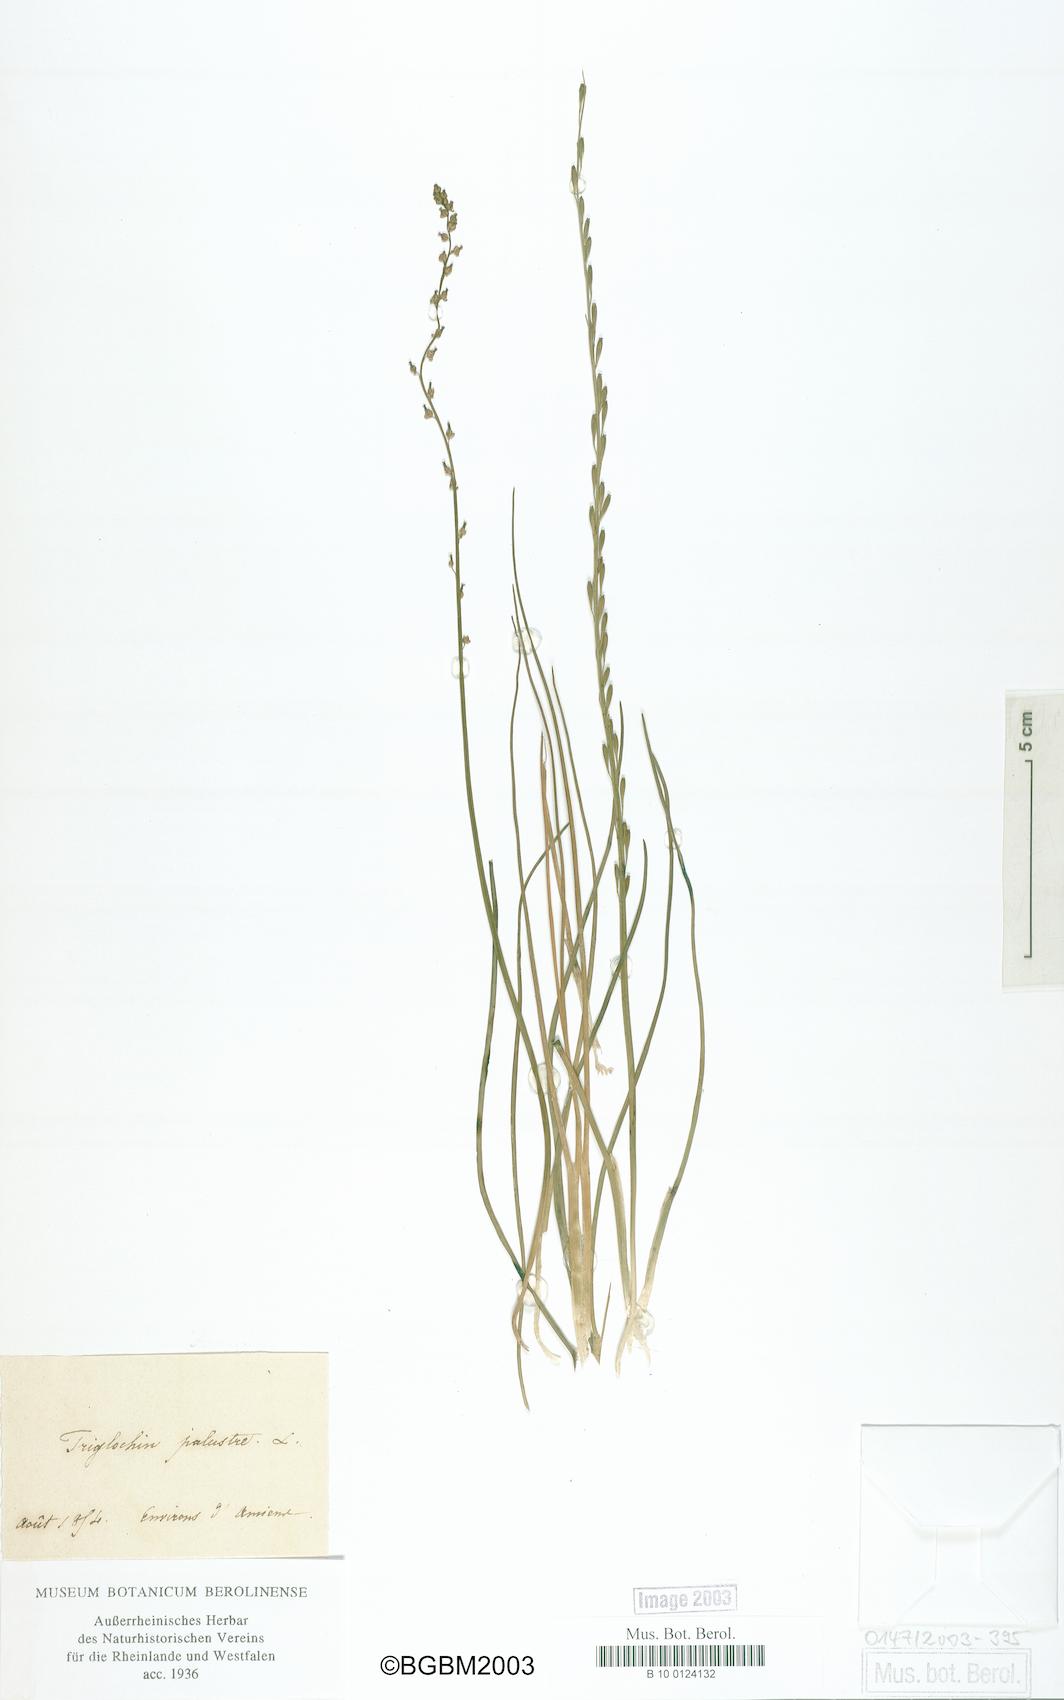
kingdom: Plantae
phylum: Tracheophyta
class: Liliopsida
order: Alismatales
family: Juncaginaceae
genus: Triglochin
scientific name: Triglochin palustris
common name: Marsh arrowgrass
